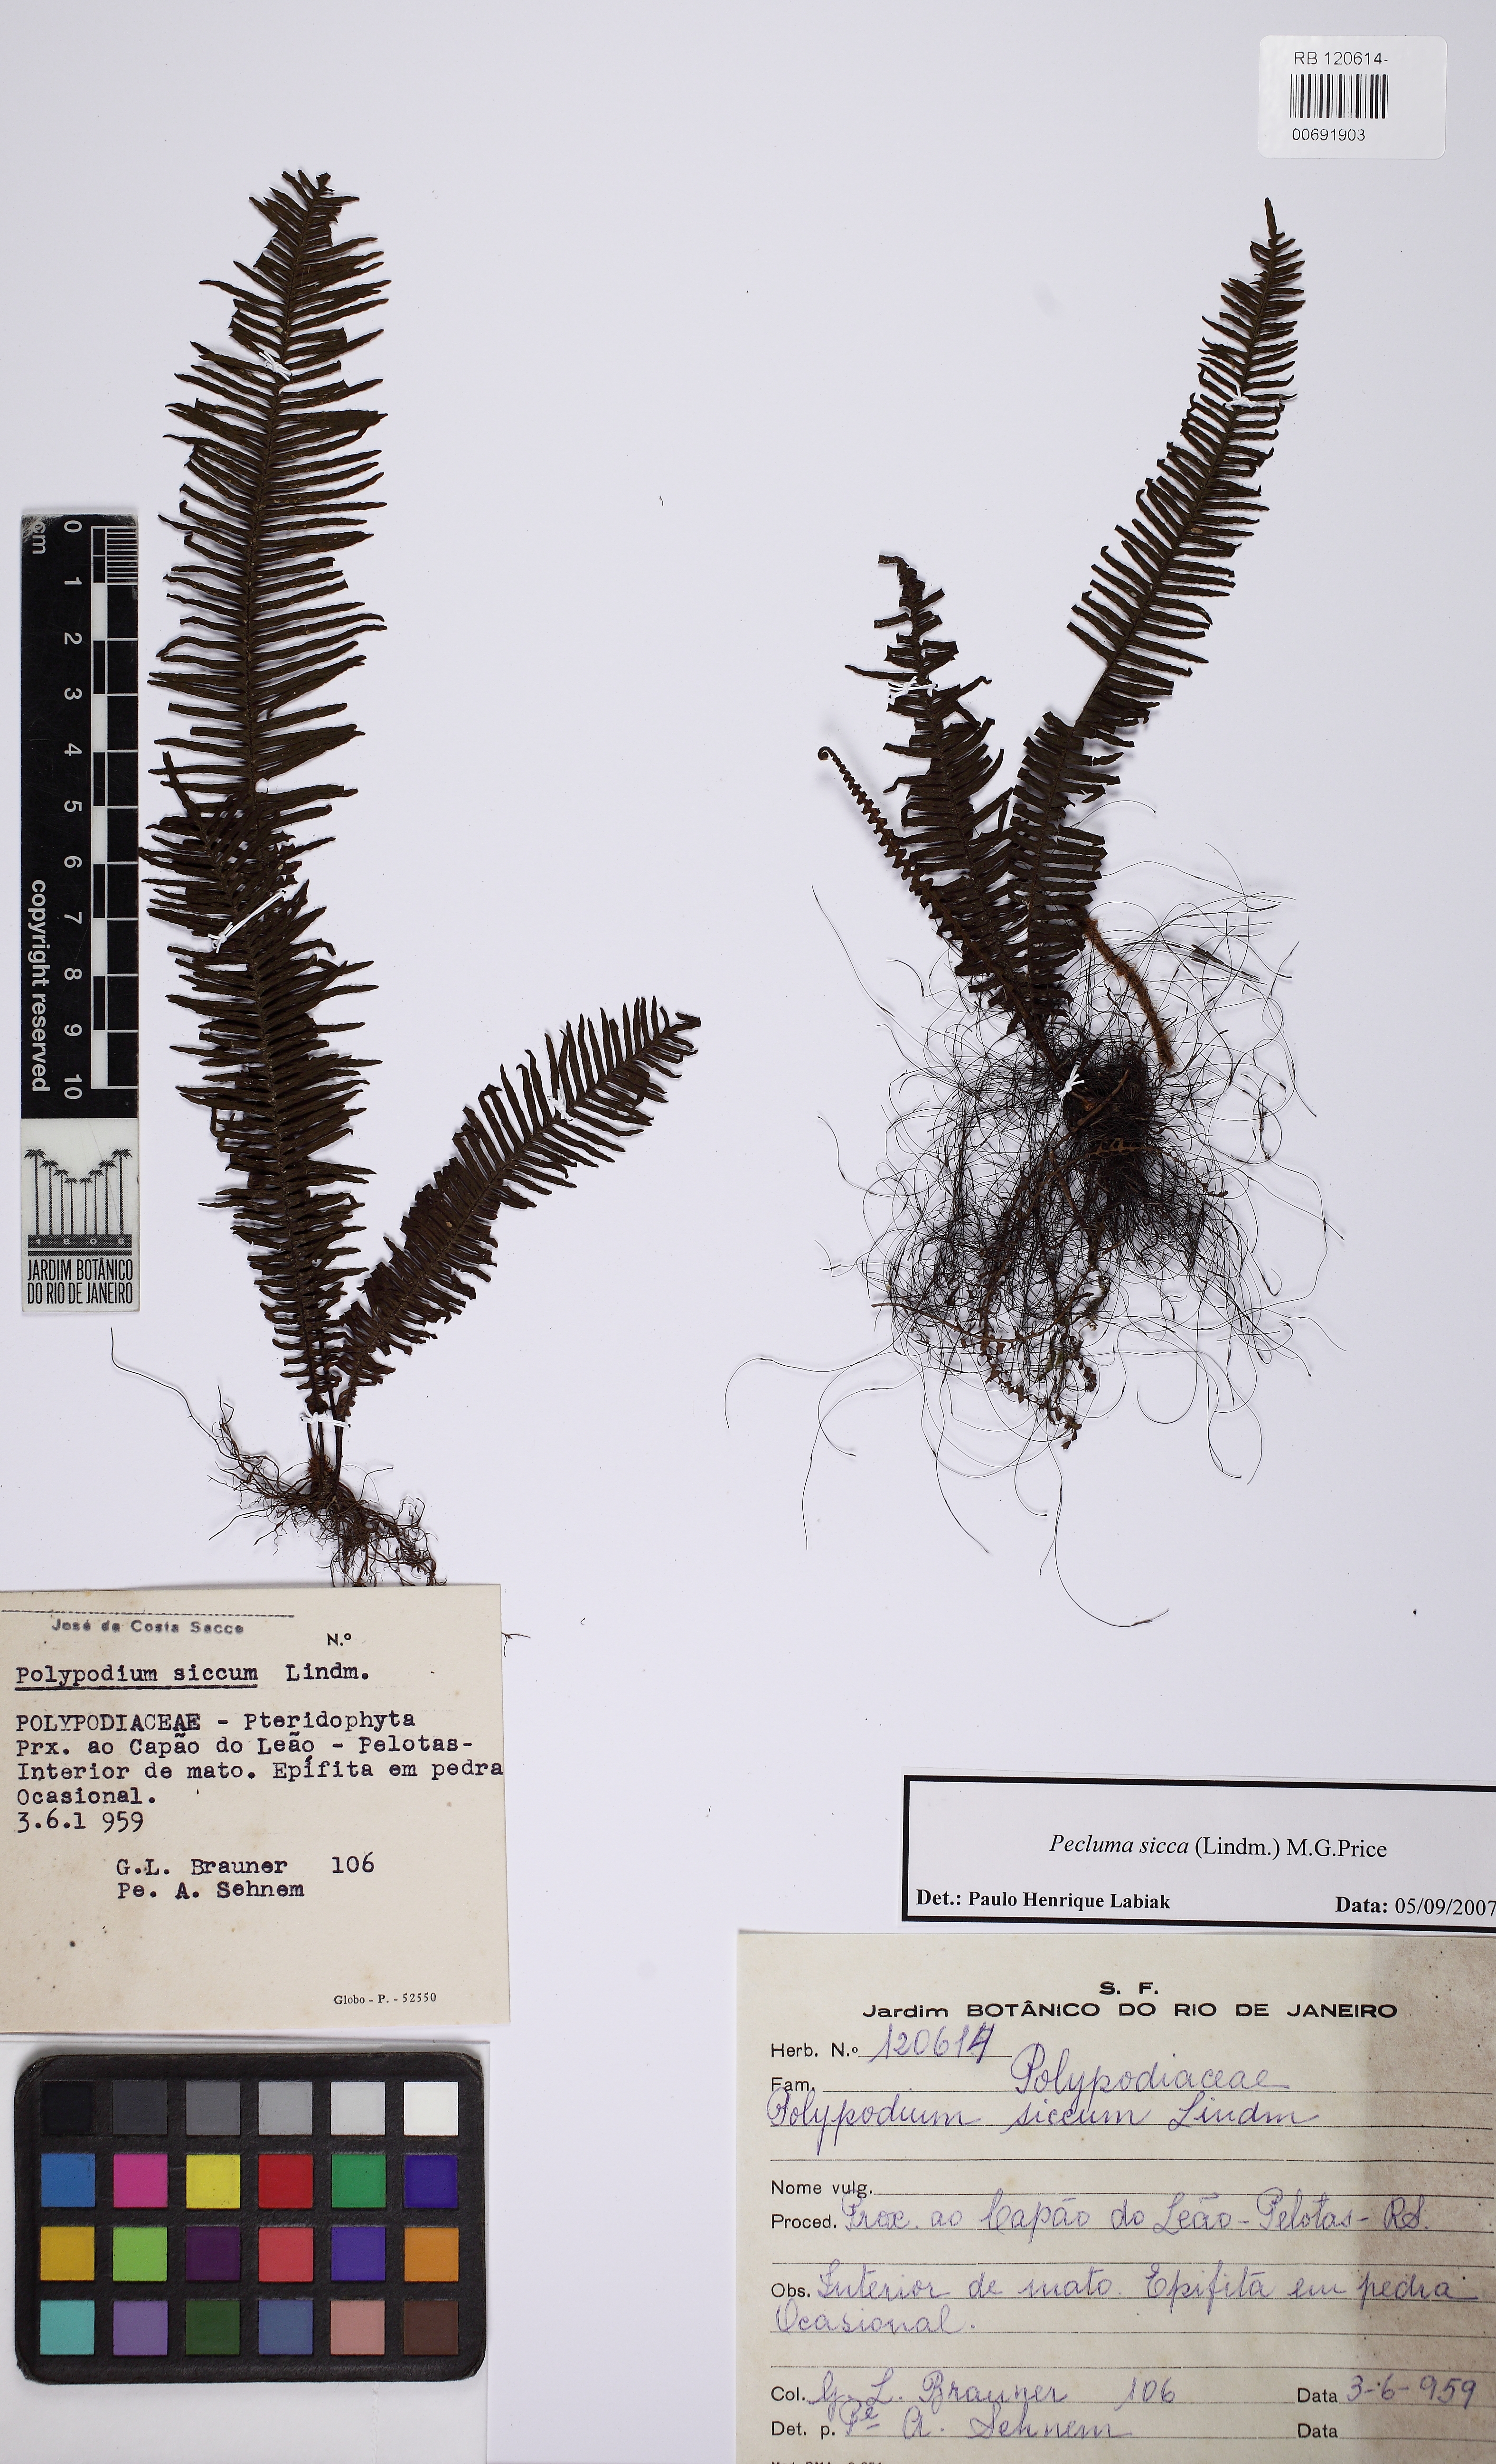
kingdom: Plantae
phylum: Tracheophyta
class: Polypodiopsida
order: Polypodiales
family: Polypodiaceae
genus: Pecluma
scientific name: Pecluma sicca
